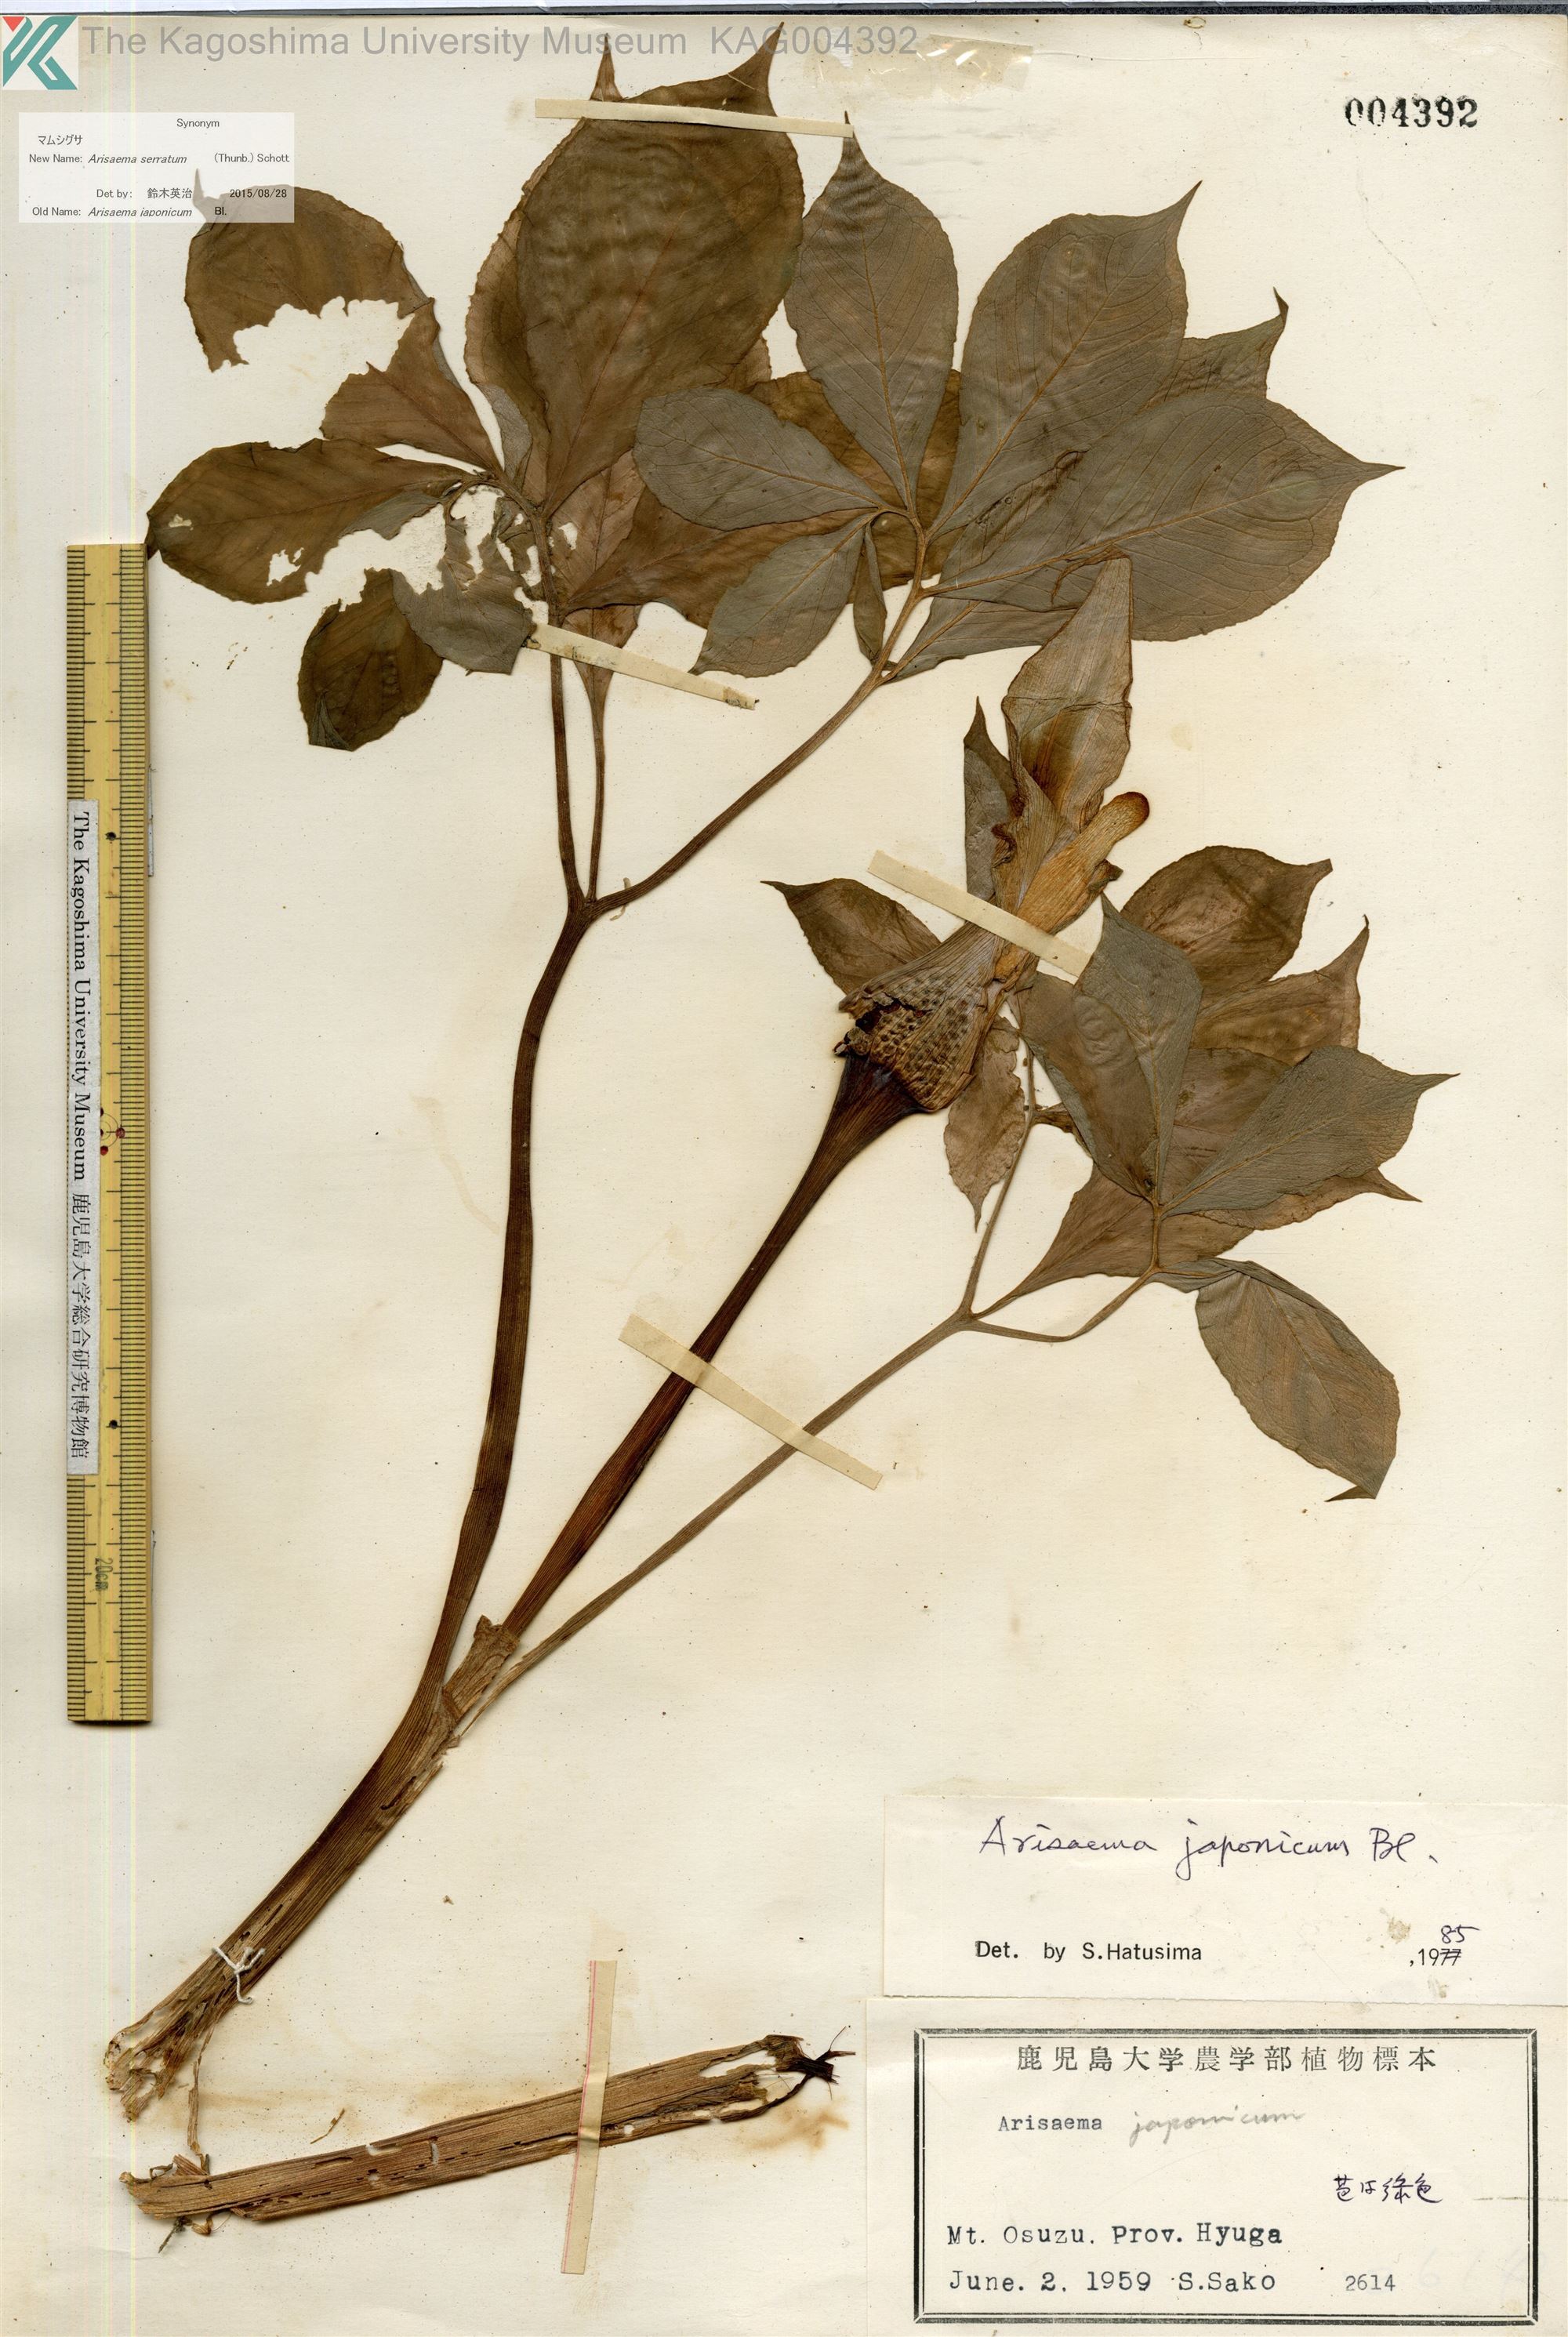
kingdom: Plantae
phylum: Tracheophyta
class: Liliopsida
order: Alismatales
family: Araceae
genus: Arisaema
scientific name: Arisaema serratum
